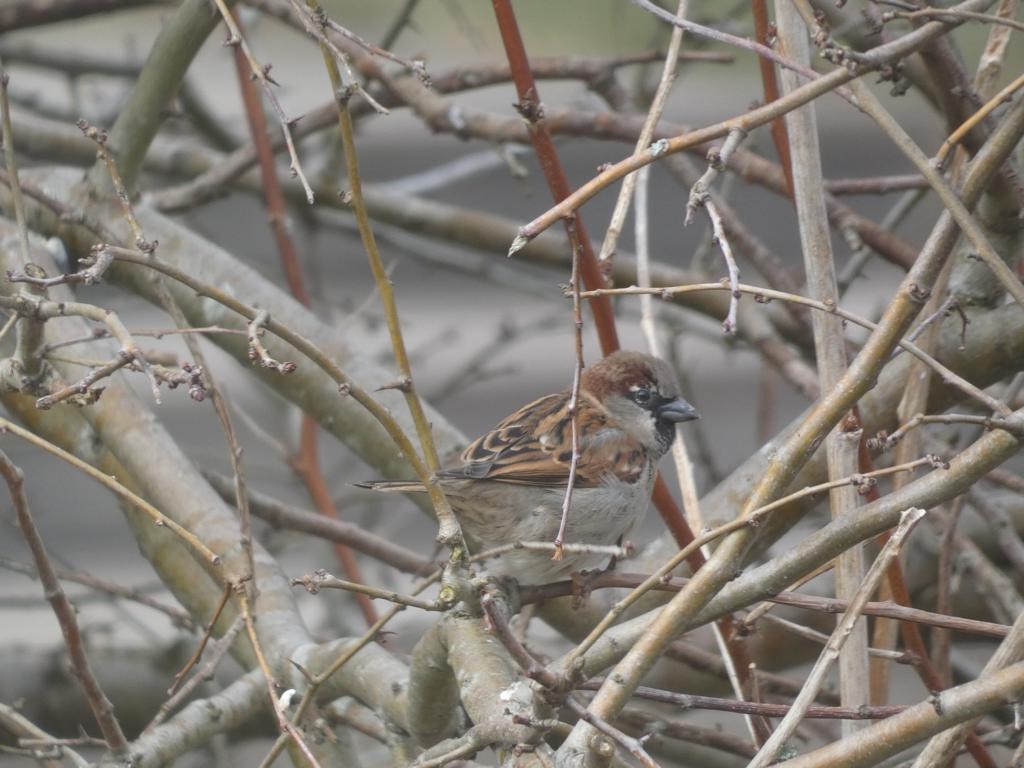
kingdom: Animalia
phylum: Chordata
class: Aves
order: Passeriformes
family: Passeridae
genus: Passer
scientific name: Passer domesticus
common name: Gråspurv
